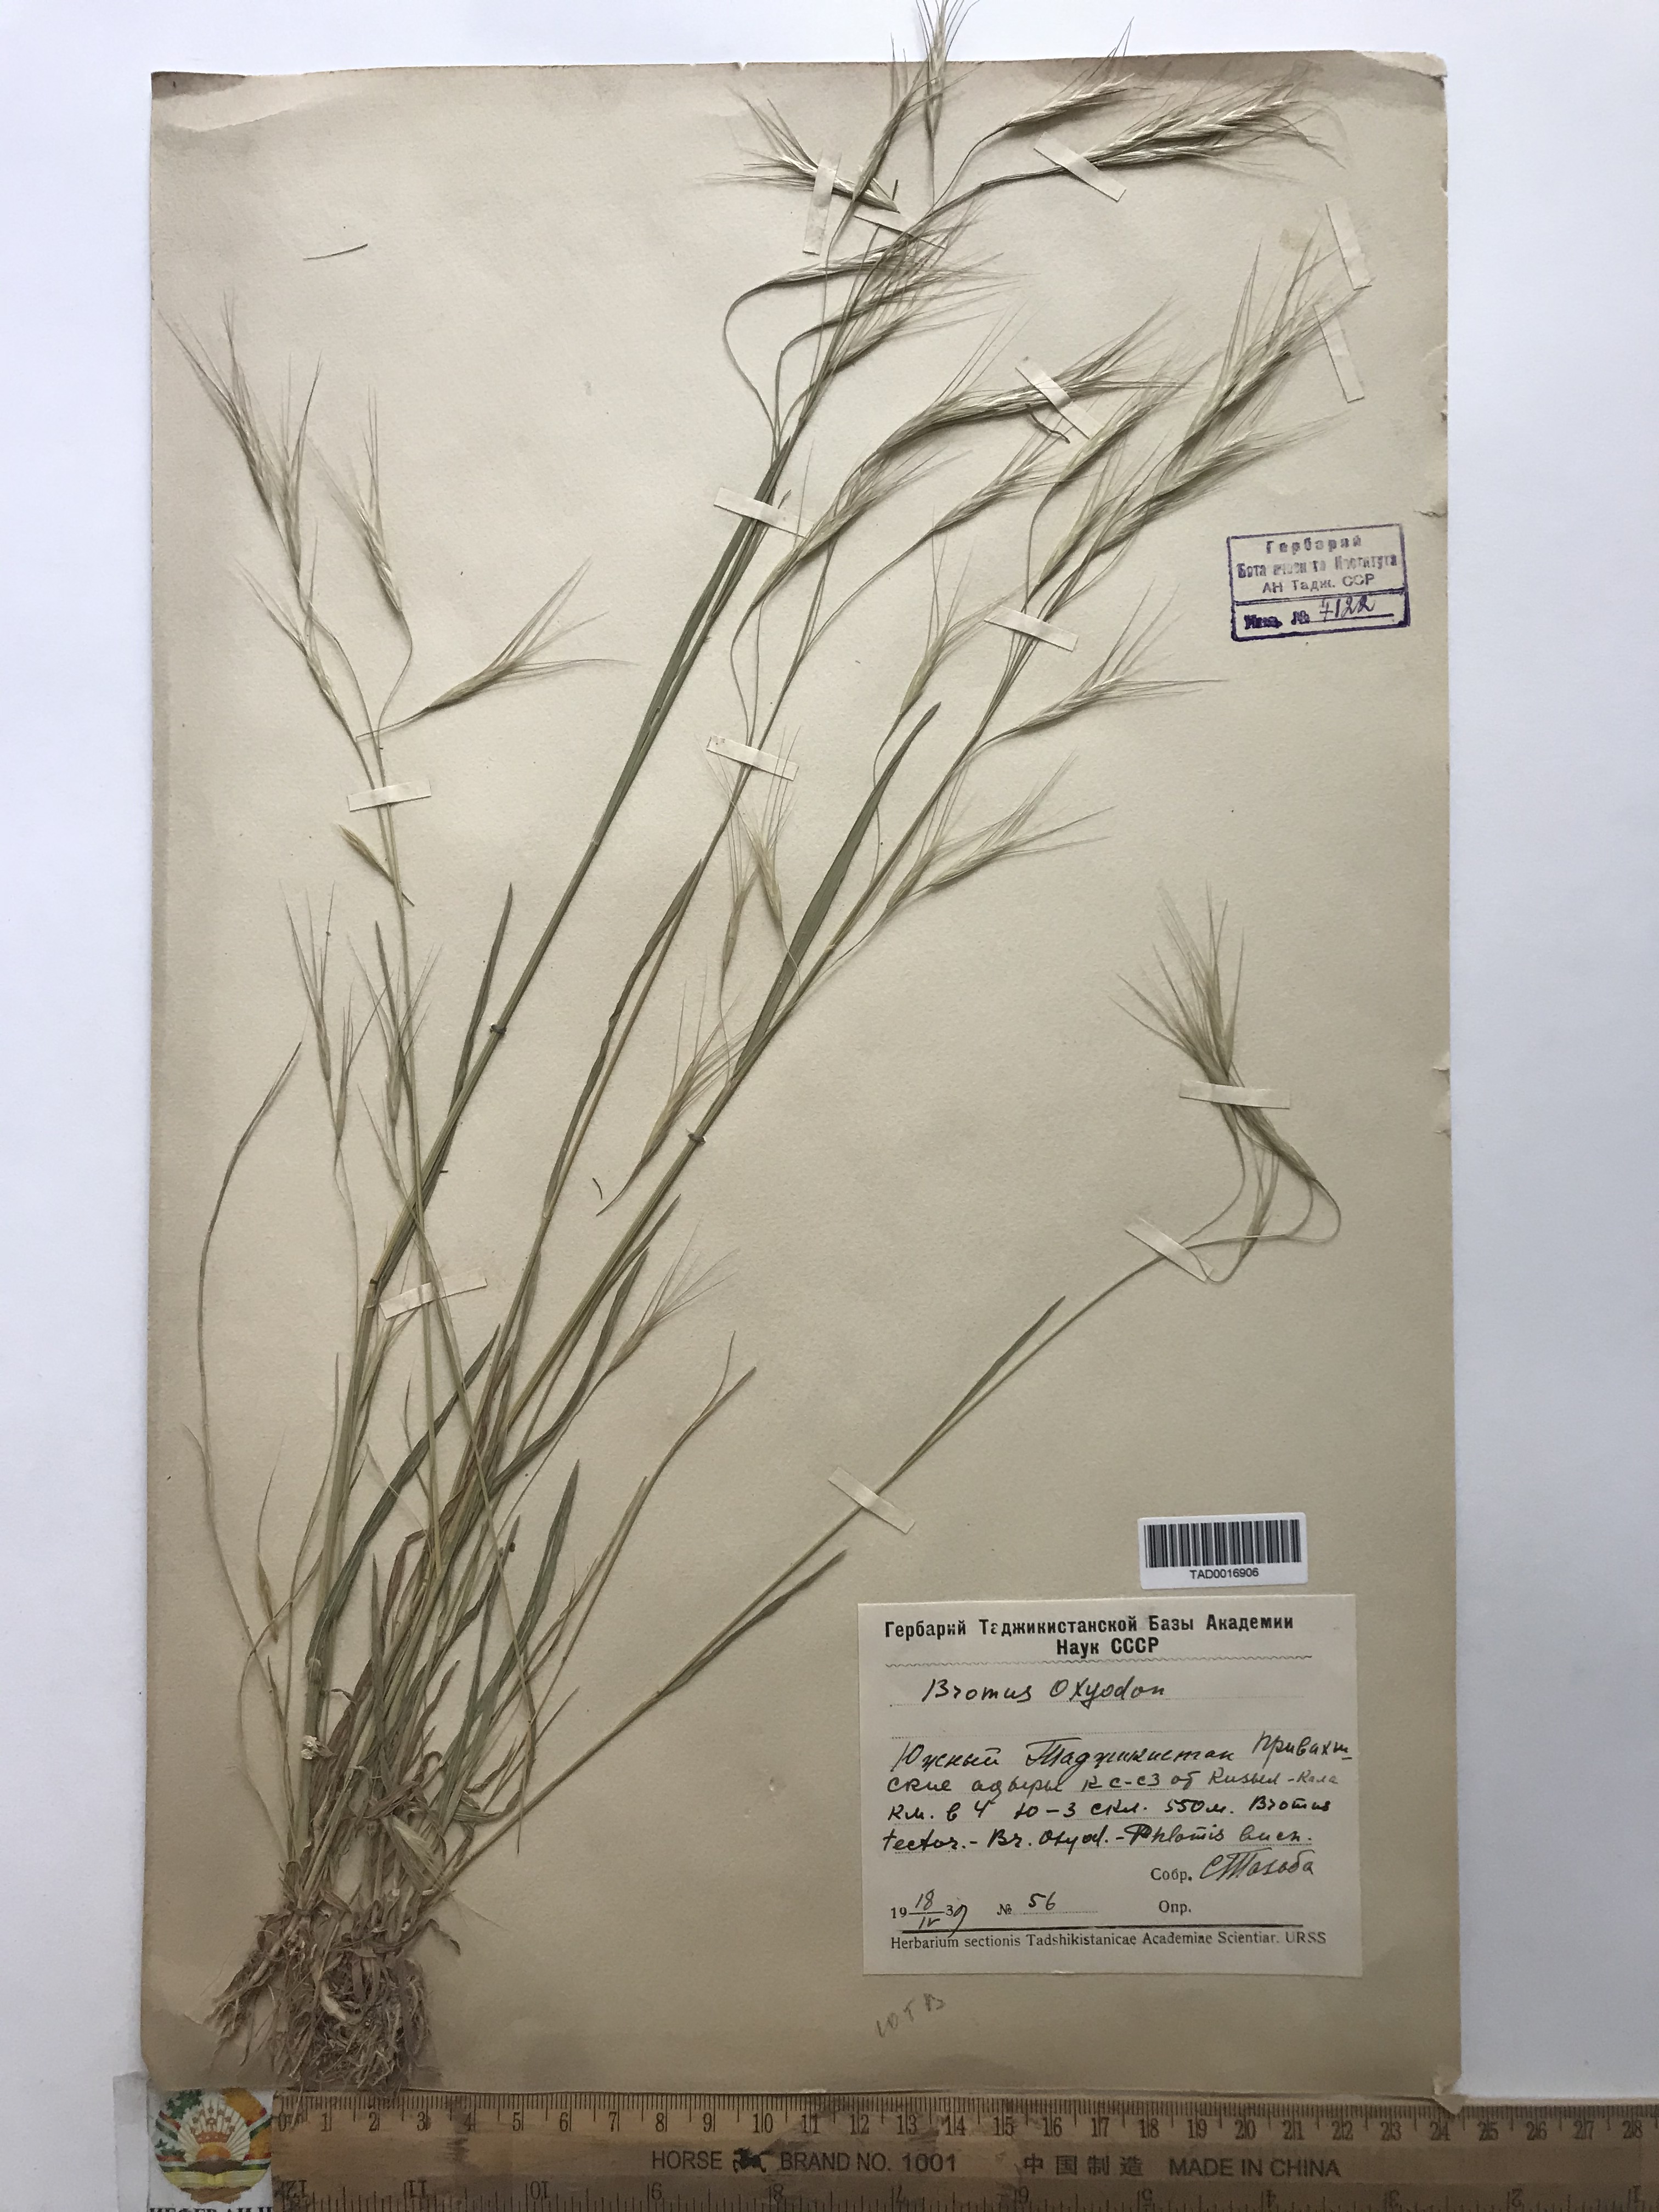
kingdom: Plantae
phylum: Tracheophyta
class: Liliopsida
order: Poales
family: Poaceae
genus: Bromus
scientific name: Bromus oxyodon
